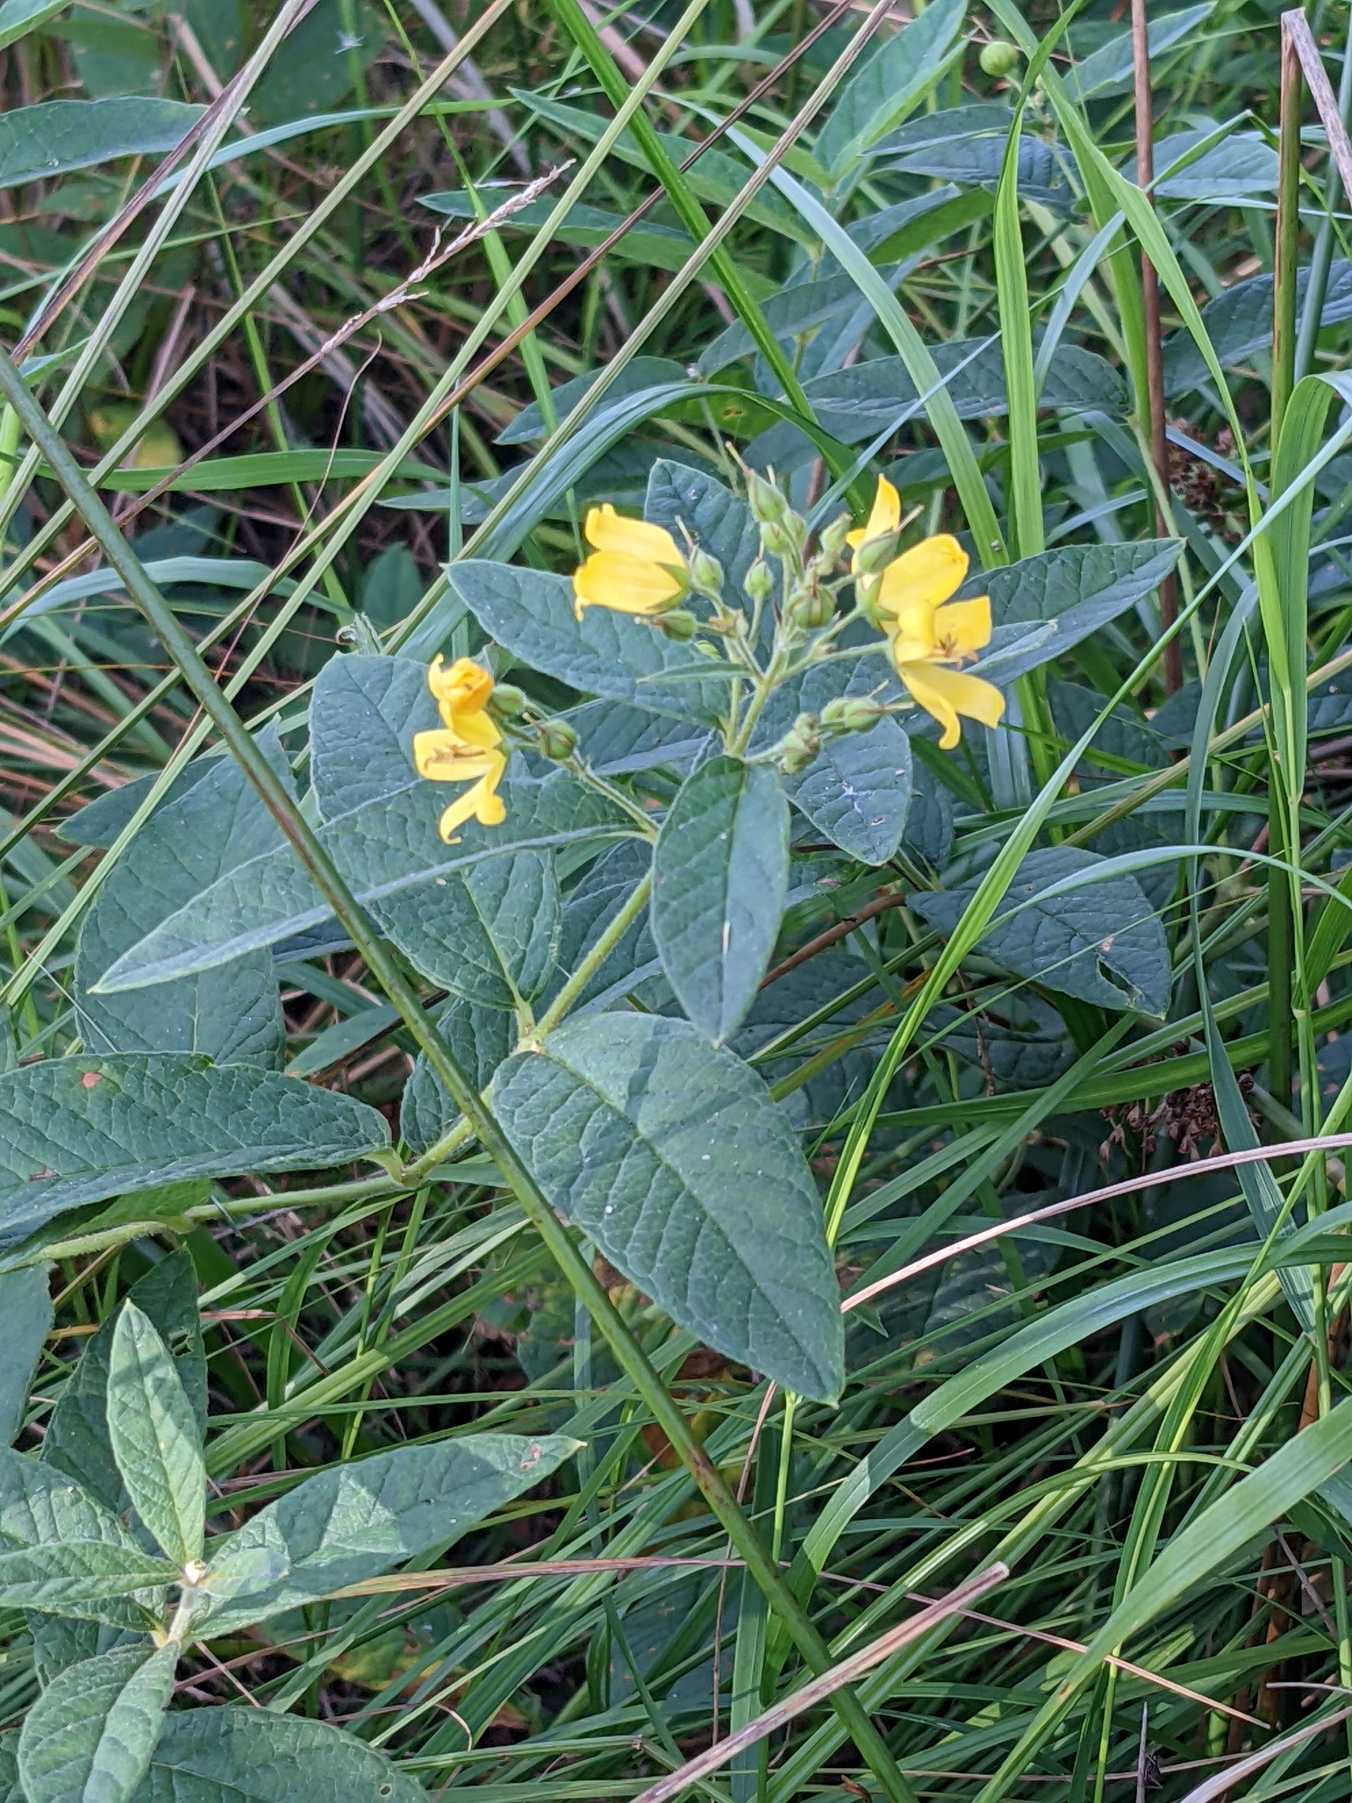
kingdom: Plantae
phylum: Tracheophyta
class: Magnoliopsida
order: Ericales
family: Primulaceae
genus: Lysimachia
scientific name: Lysimachia vulgaris
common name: Almindelig fredløs
